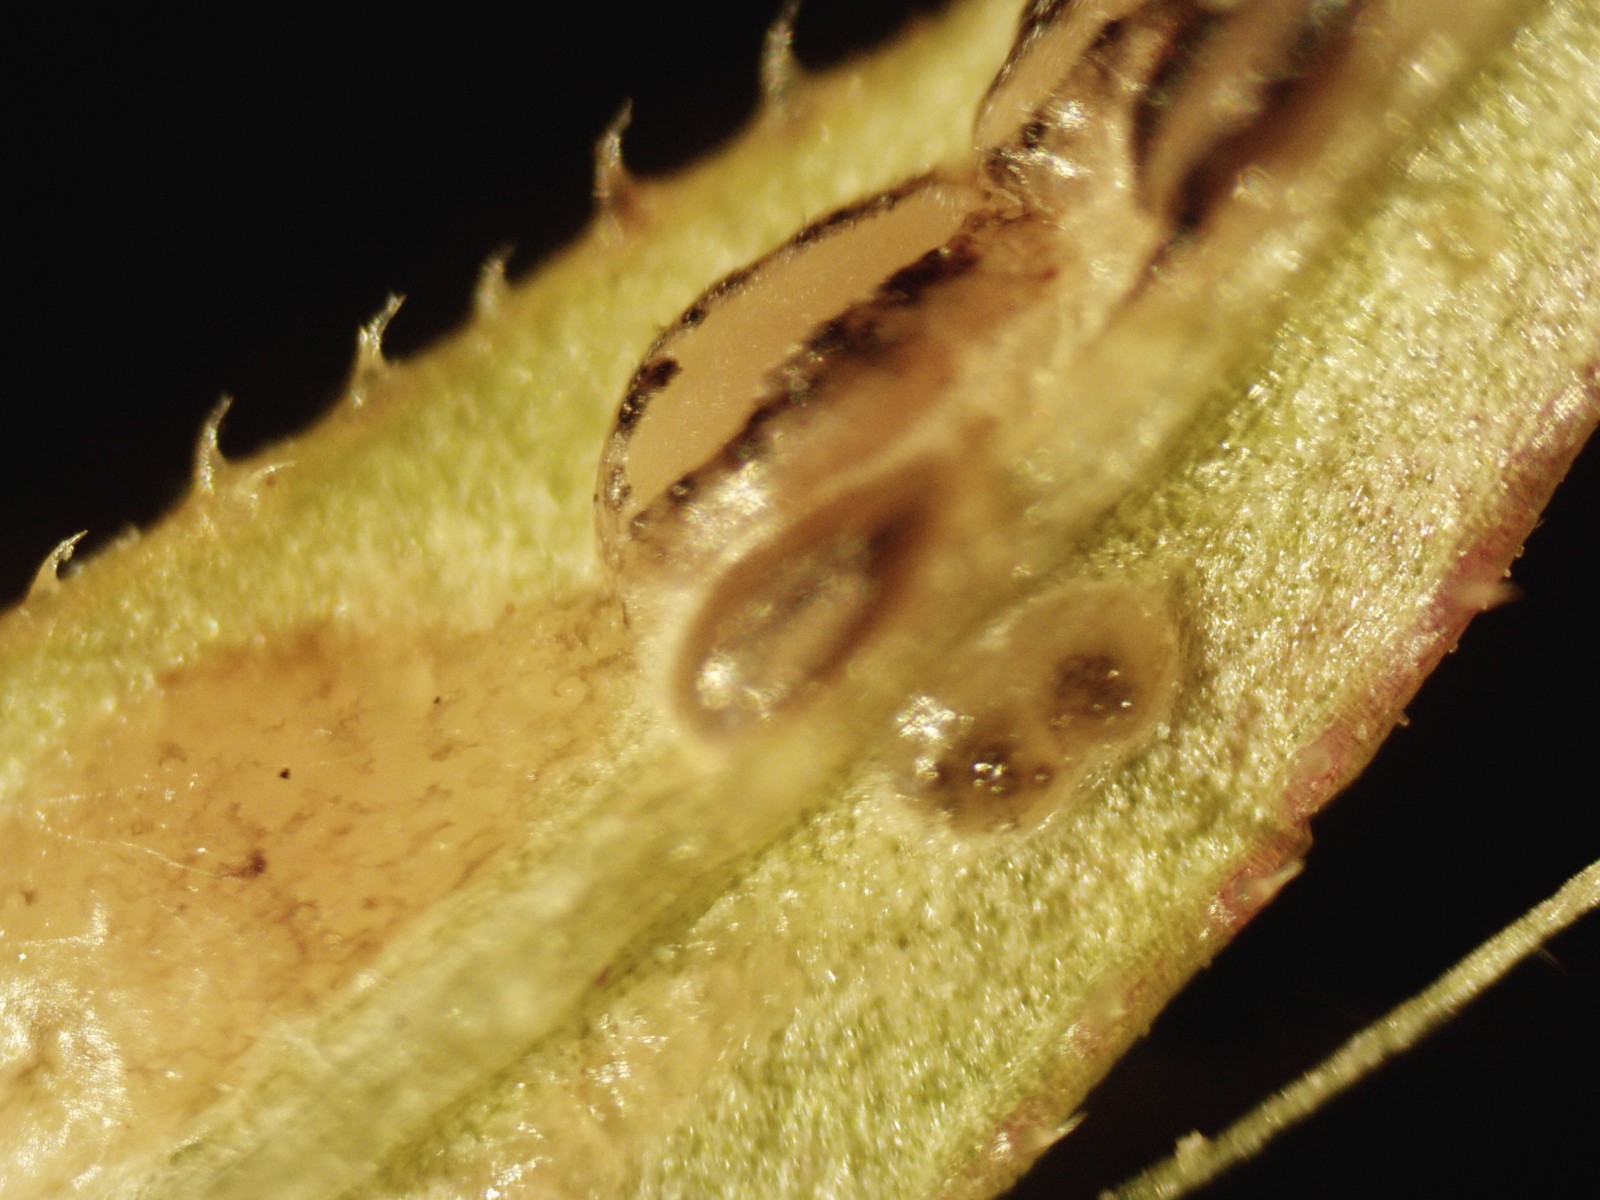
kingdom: Fungi
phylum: Ascomycota
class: Leotiomycetes
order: Helotiales
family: Drepanopezizaceae
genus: Leptotrochila
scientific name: Leptotrochila verrucosa
